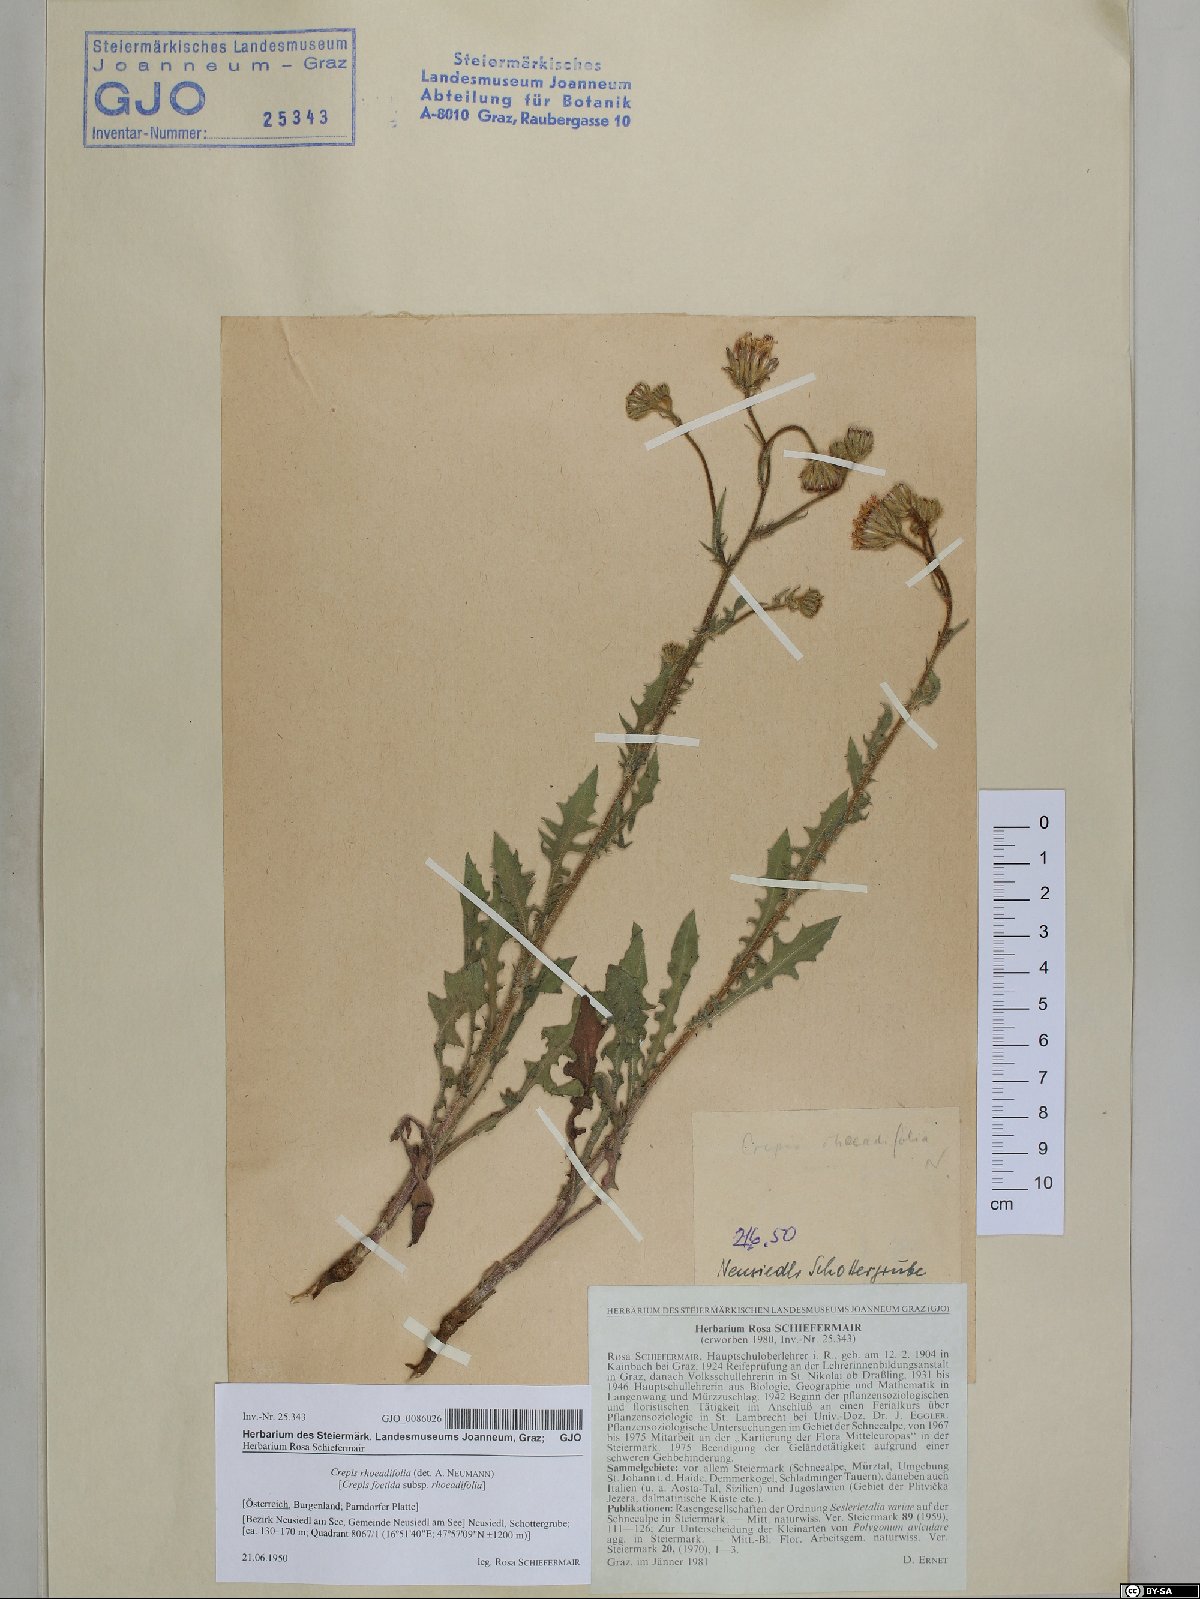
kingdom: Plantae
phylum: Tracheophyta
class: Magnoliopsida
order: Asterales
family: Asteraceae
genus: Crepis
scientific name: Crepis foetida
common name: Stinking hawk's-beard
